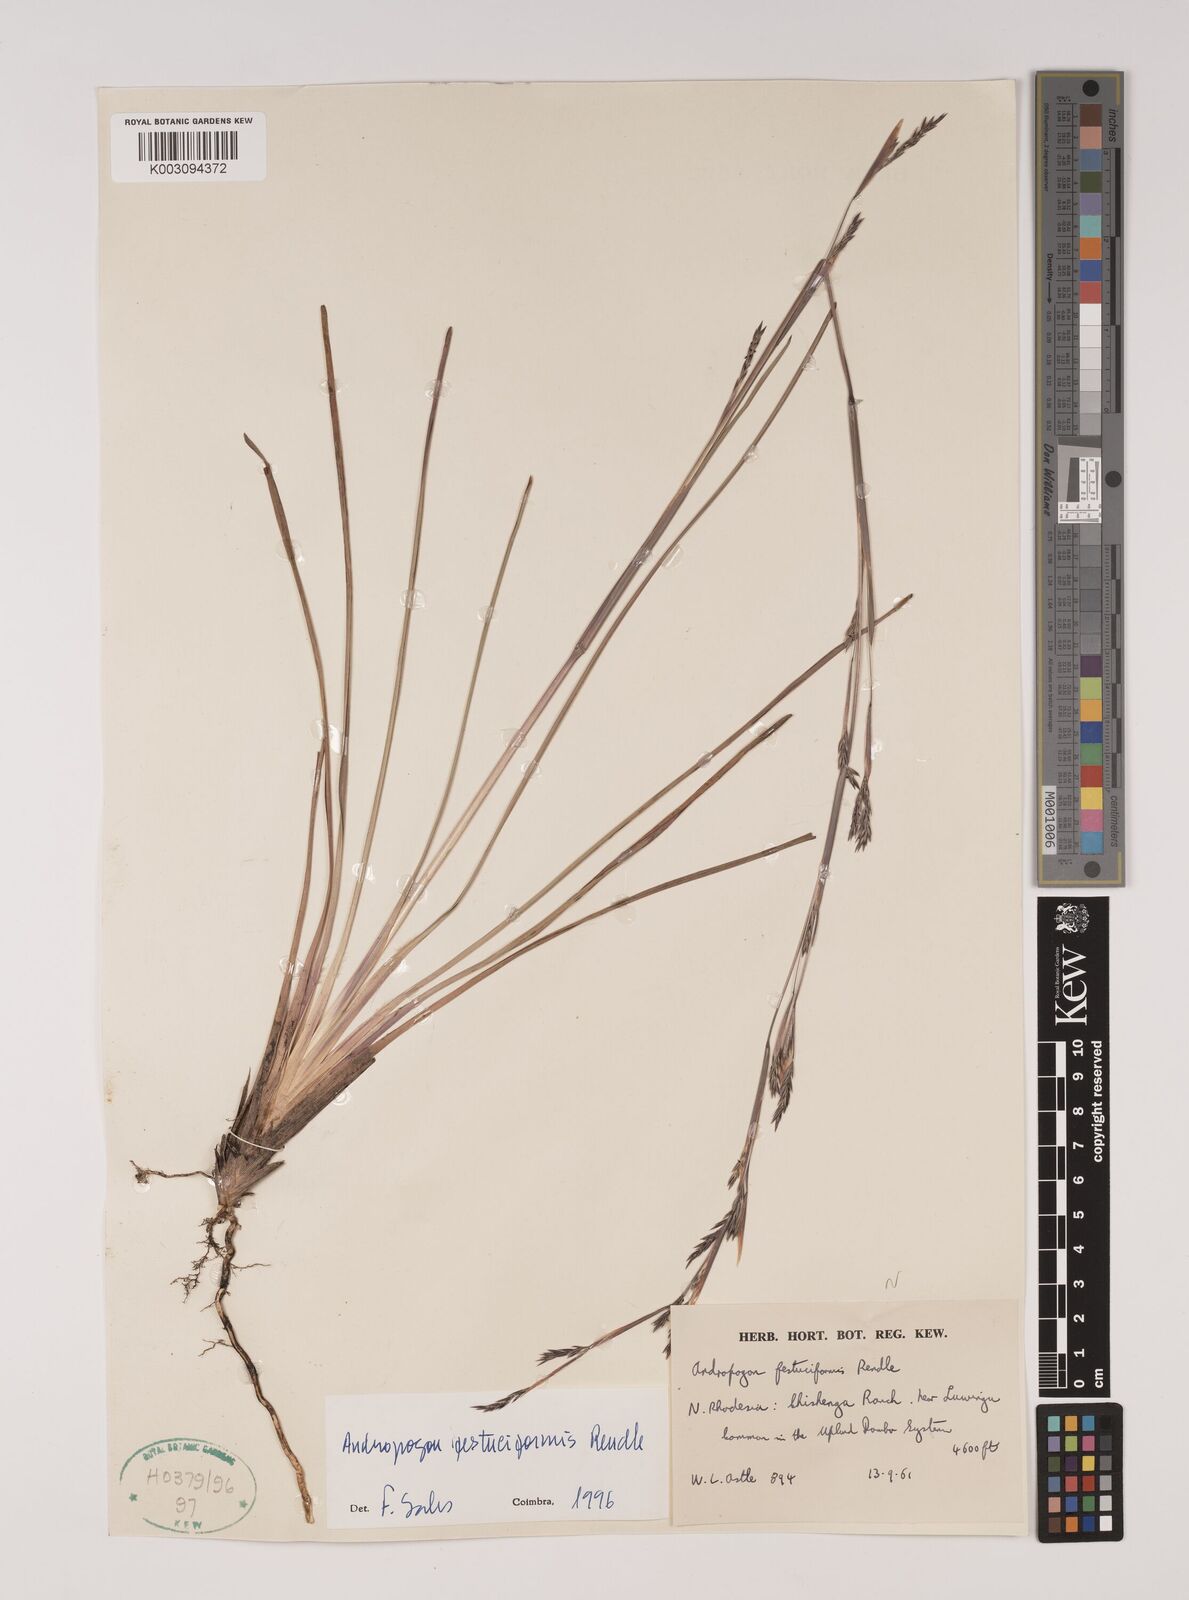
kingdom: Plantae
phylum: Tracheophyta
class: Liliopsida
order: Poales
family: Poaceae
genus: Andropogon
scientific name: Andropogon festuciformis
